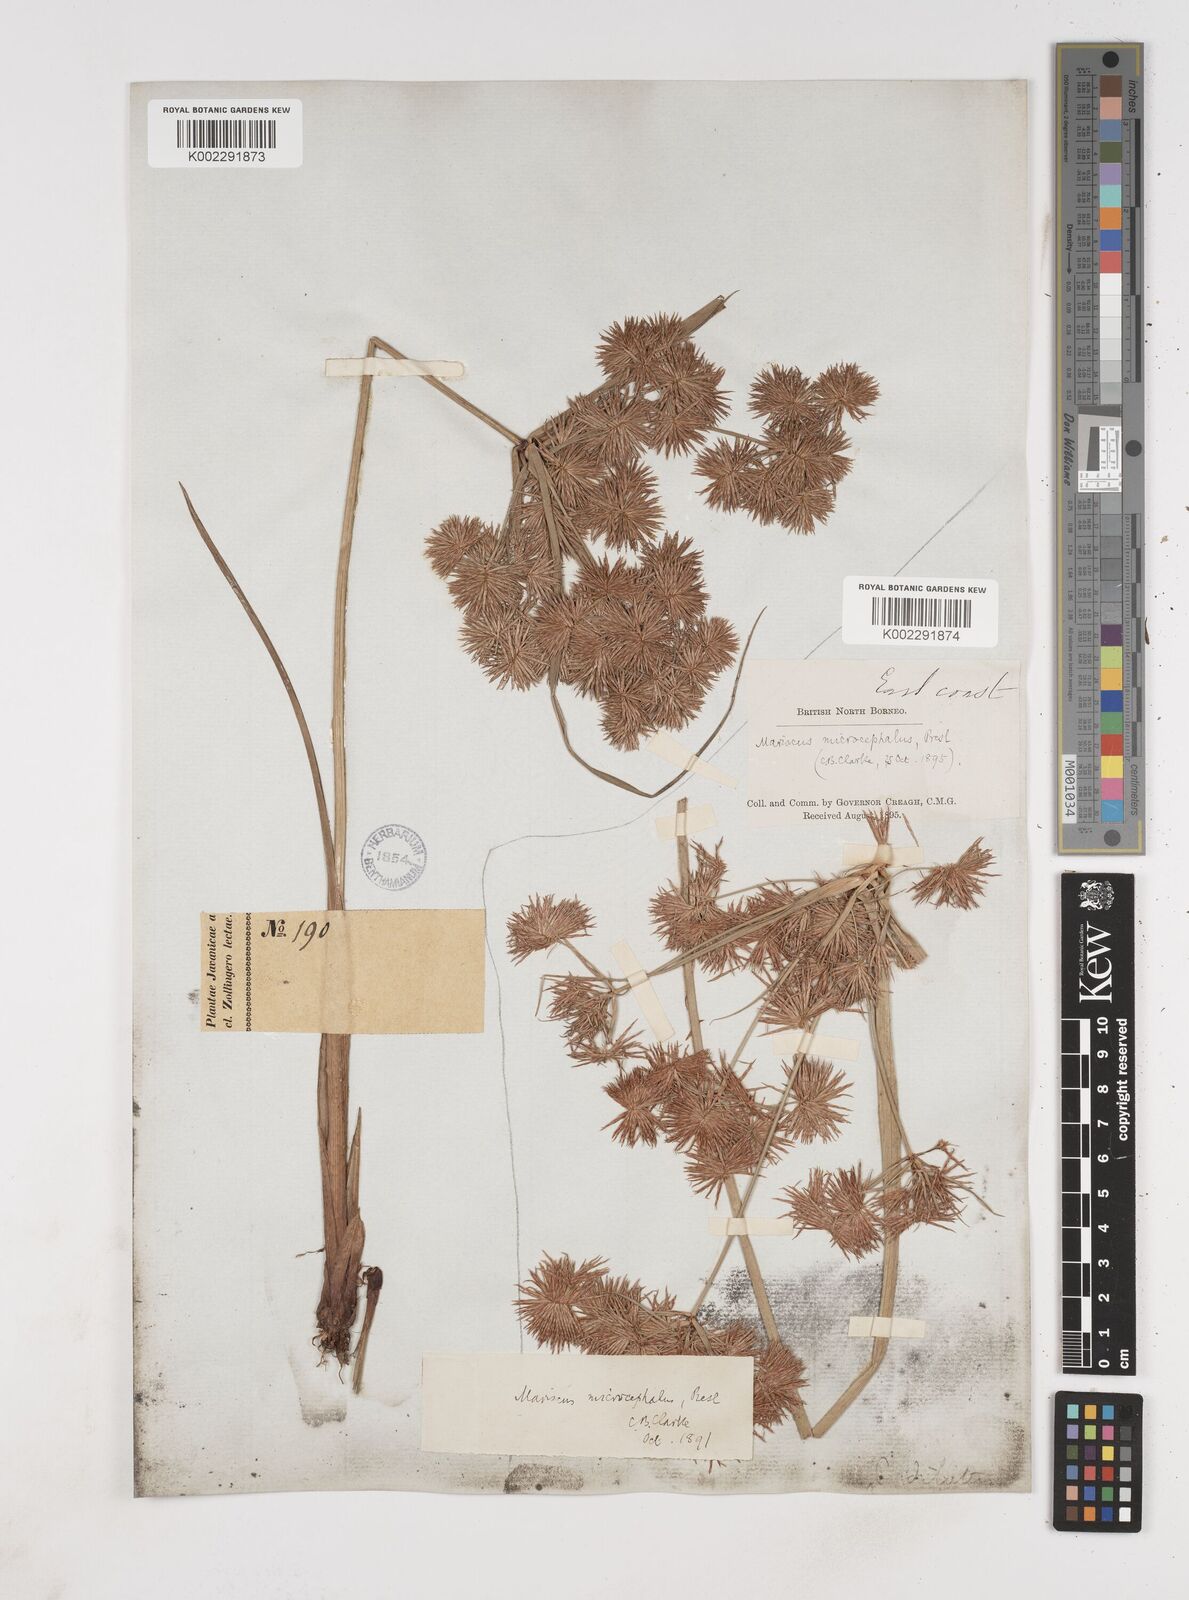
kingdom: Plantae
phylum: Tracheophyta
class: Liliopsida
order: Poales
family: Cyperaceae
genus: Cyperus
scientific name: Cyperus compactus
